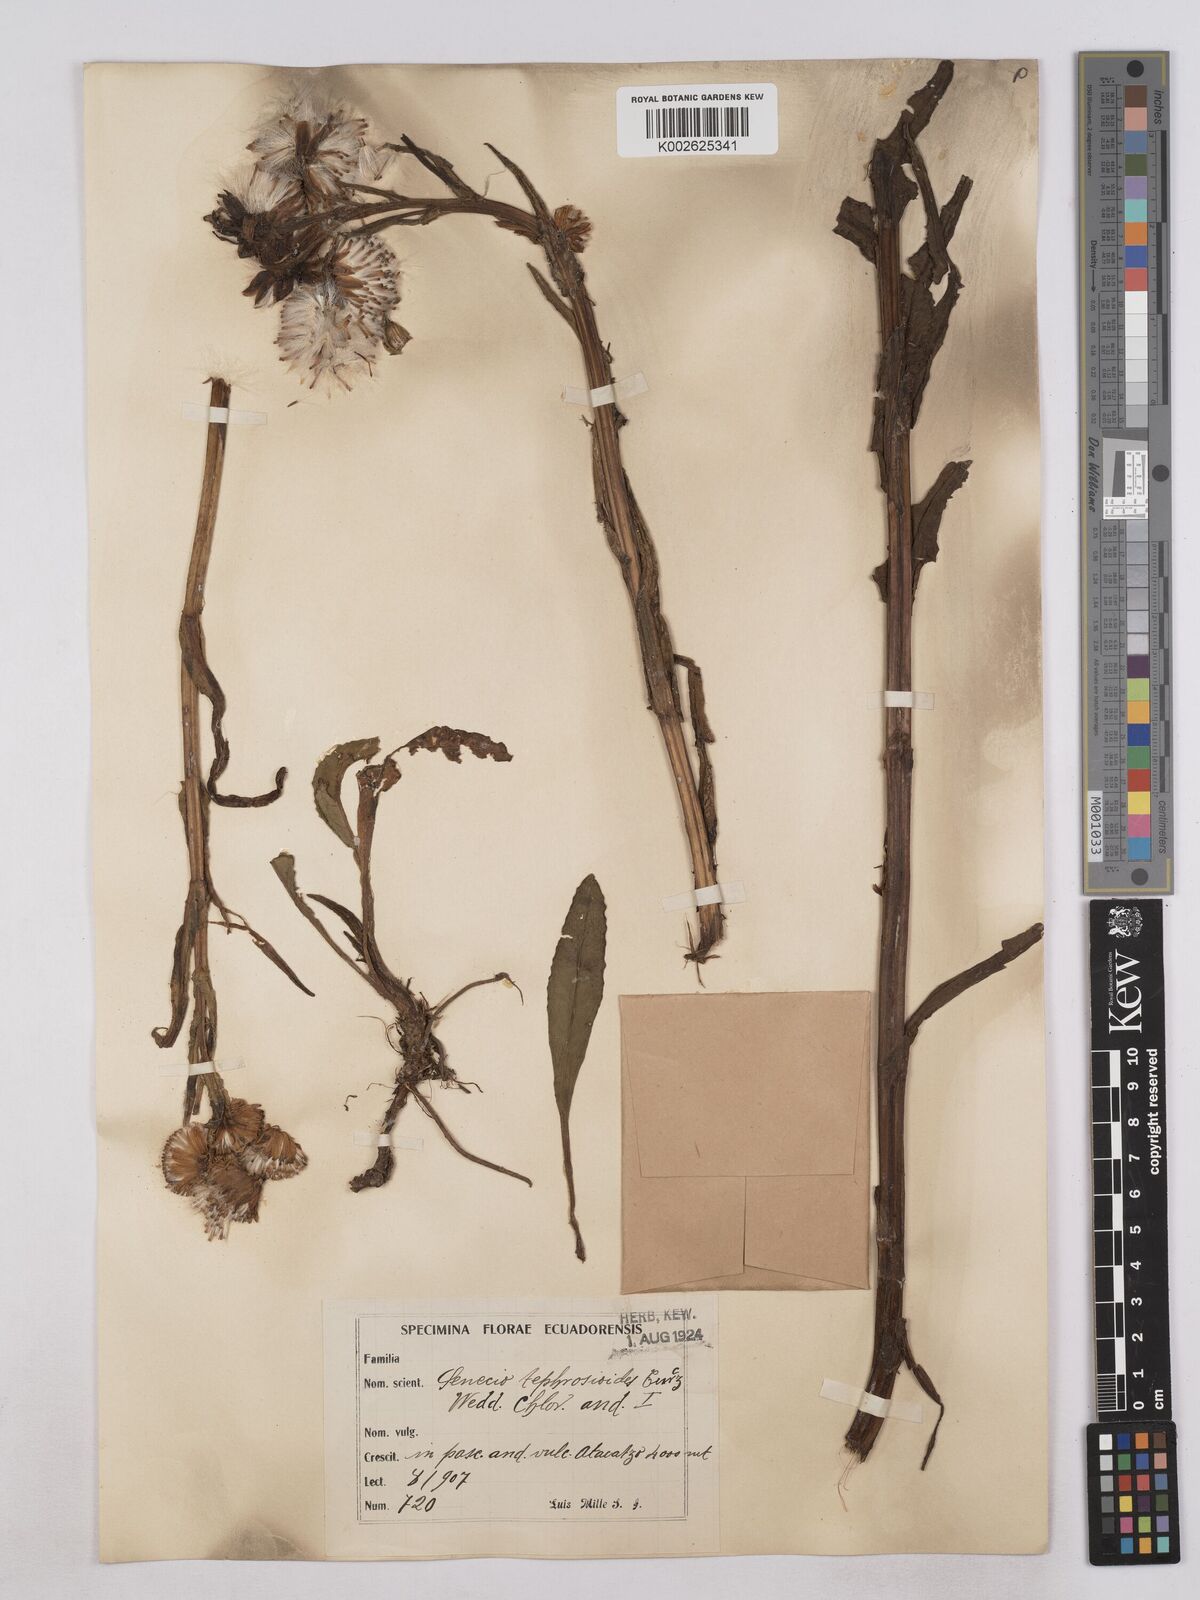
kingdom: Plantae
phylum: Tracheophyta
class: Magnoliopsida
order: Asterales
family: Asteraceae
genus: Senecio
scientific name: Senecio tephrosioides
